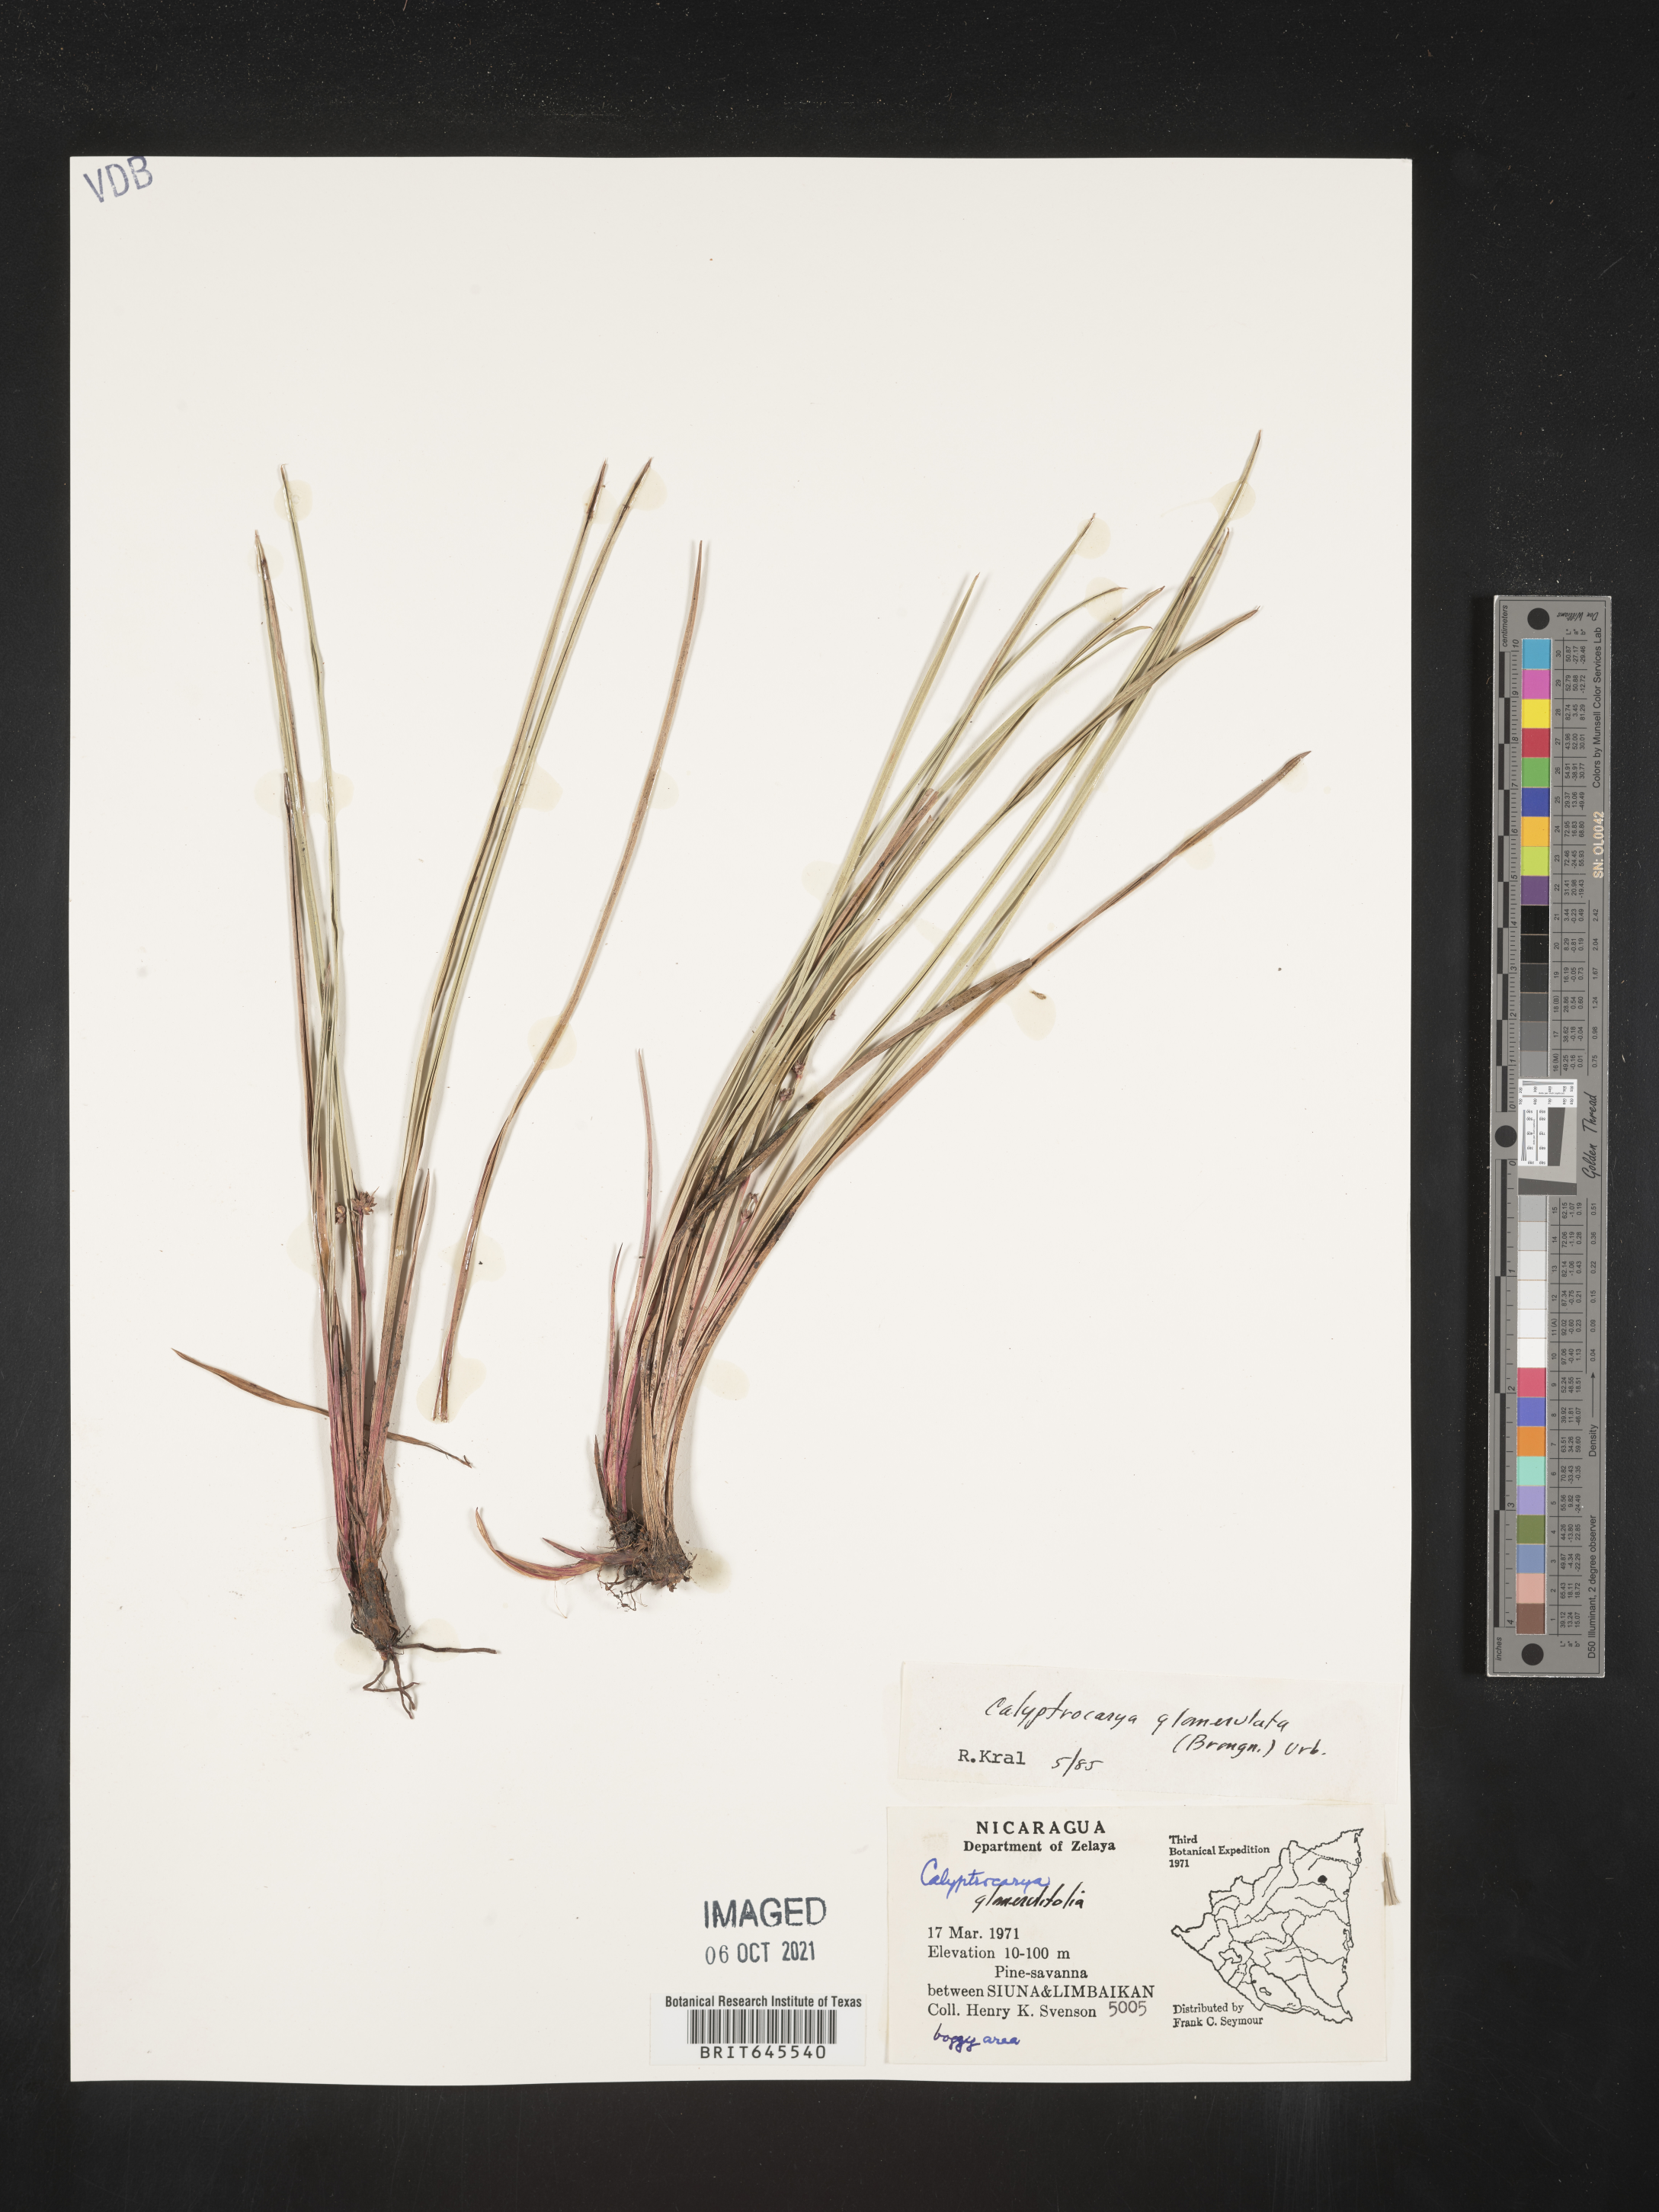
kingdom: Plantae
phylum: Tracheophyta
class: Liliopsida
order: Poales
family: Cyperaceae
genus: Calyptrocarya
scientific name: Calyptrocarya glomerulata
